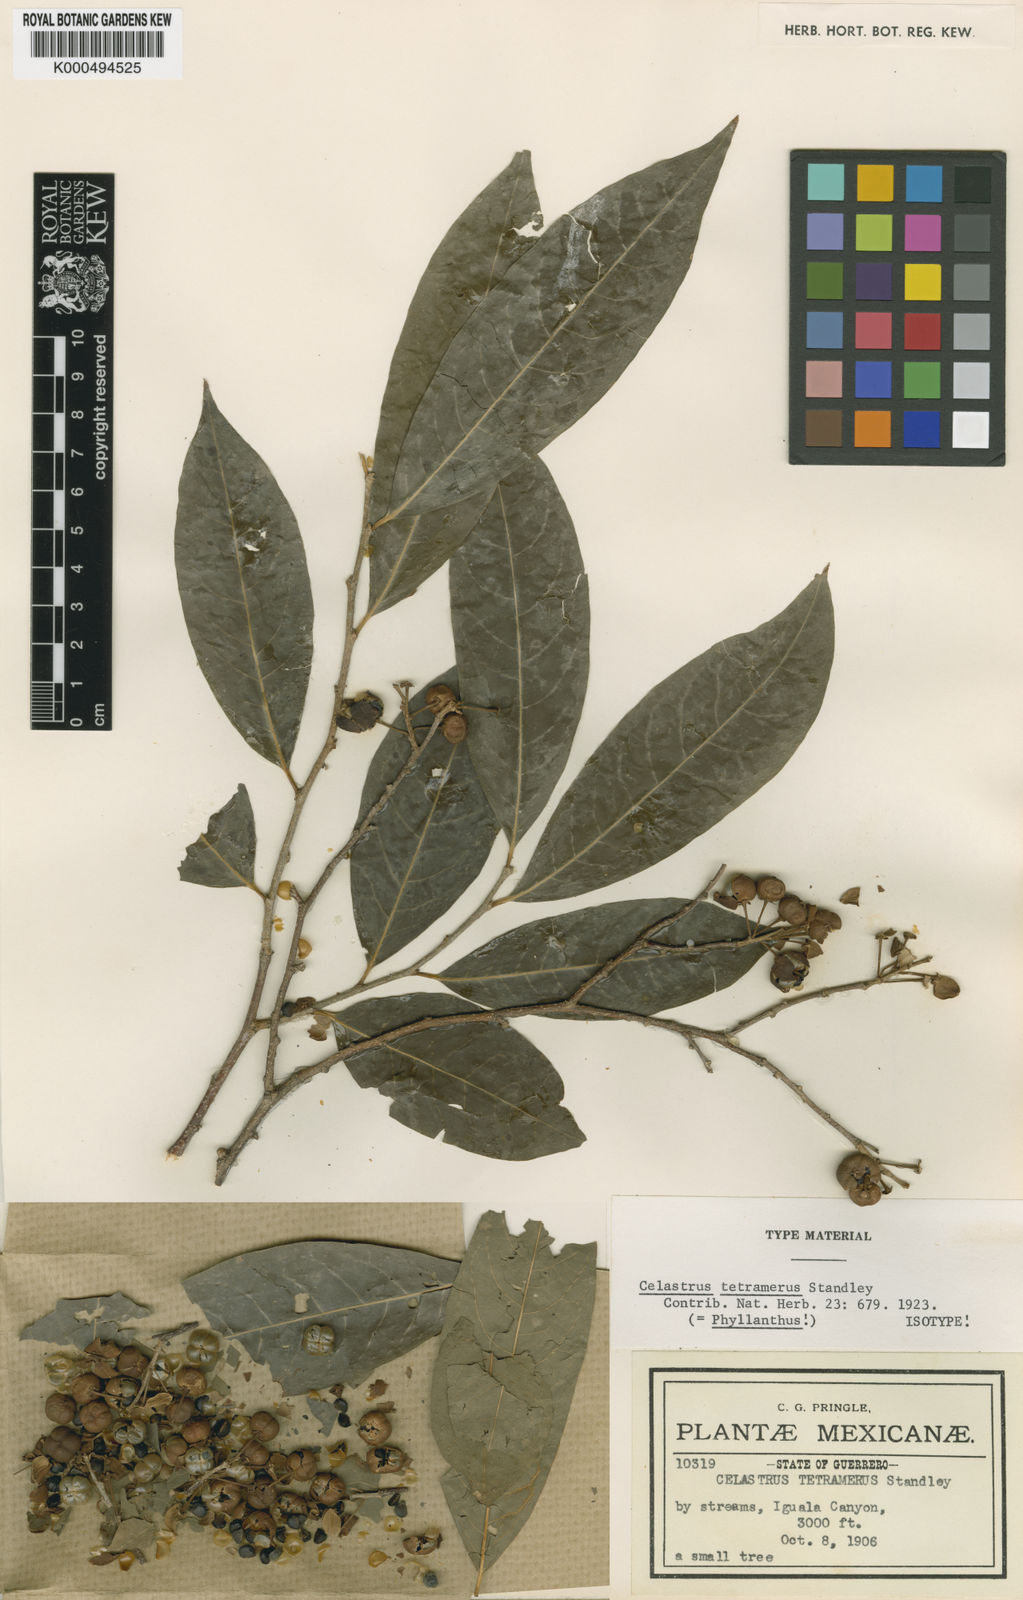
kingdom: Plantae
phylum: Tracheophyta
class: Magnoliopsida
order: Celastrales
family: Celastraceae
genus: Celastrus
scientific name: Celastrus tetramerus
